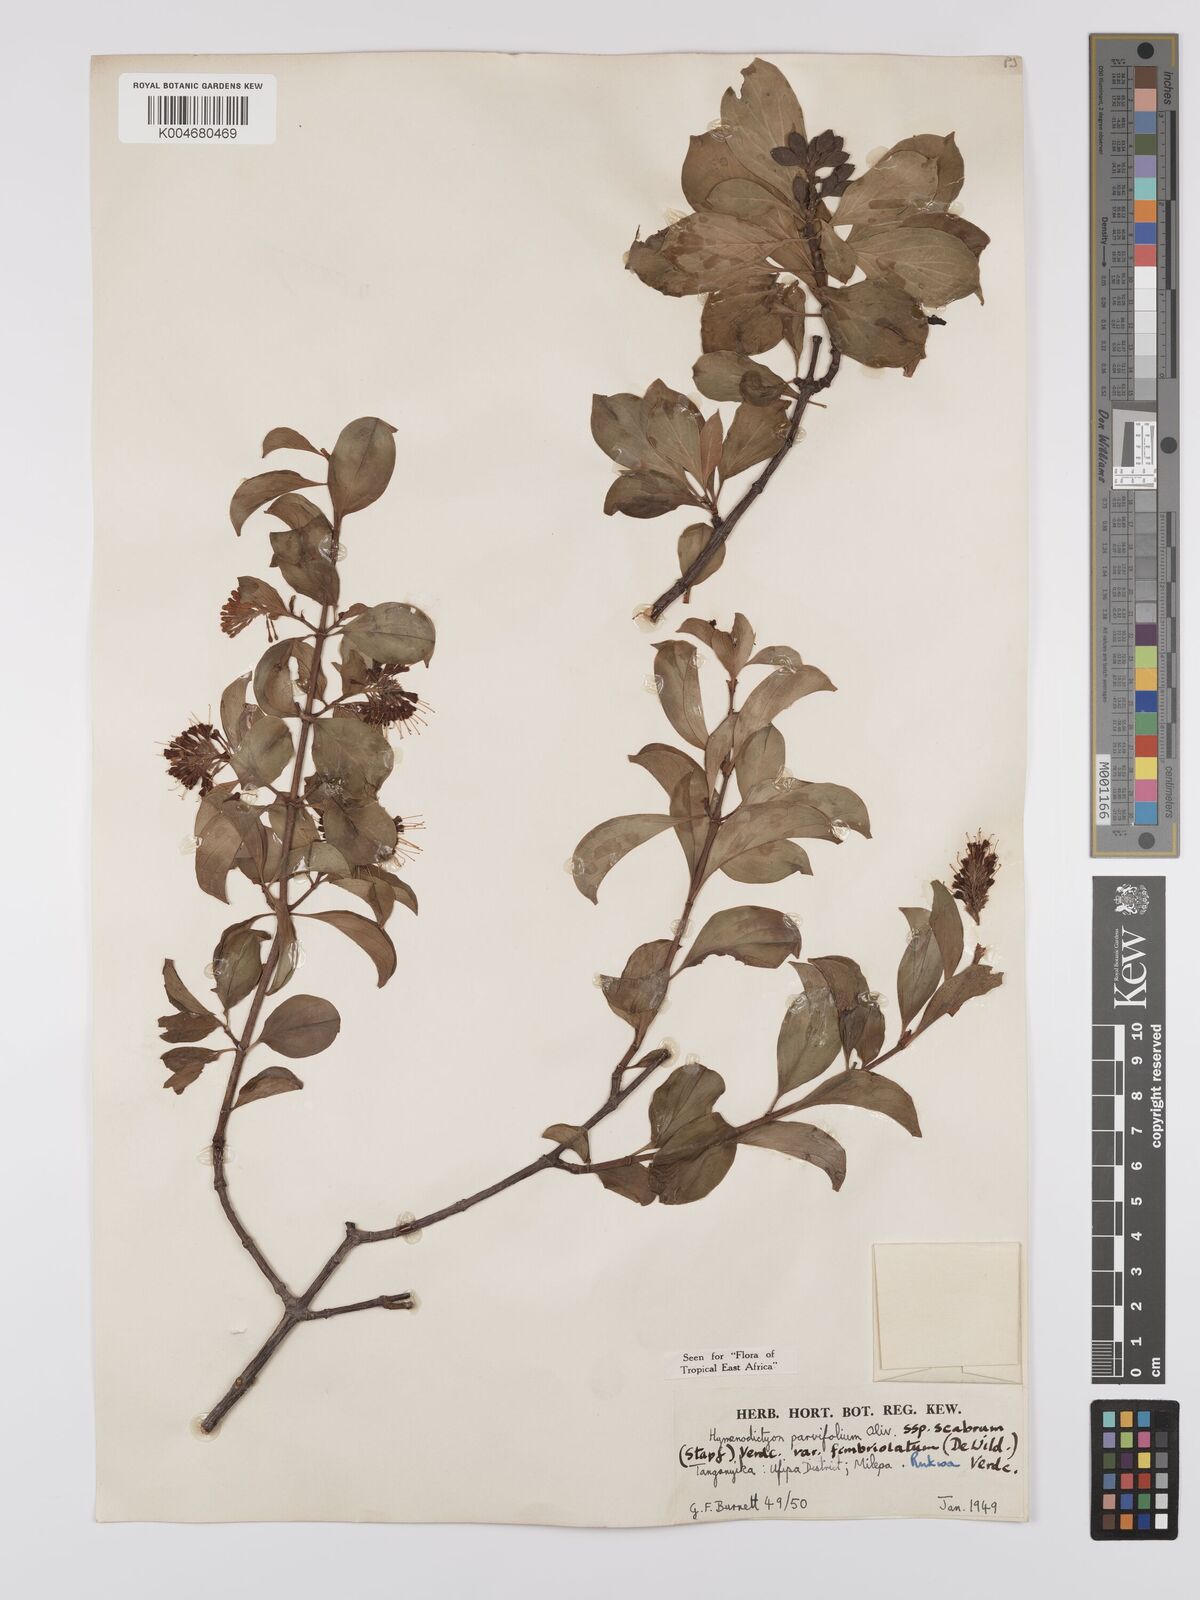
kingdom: Plantae
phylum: Tracheophyta
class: Magnoliopsida
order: Gentianales
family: Rubiaceae
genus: Hymenodictyon
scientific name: Hymenodictyon scabrum
